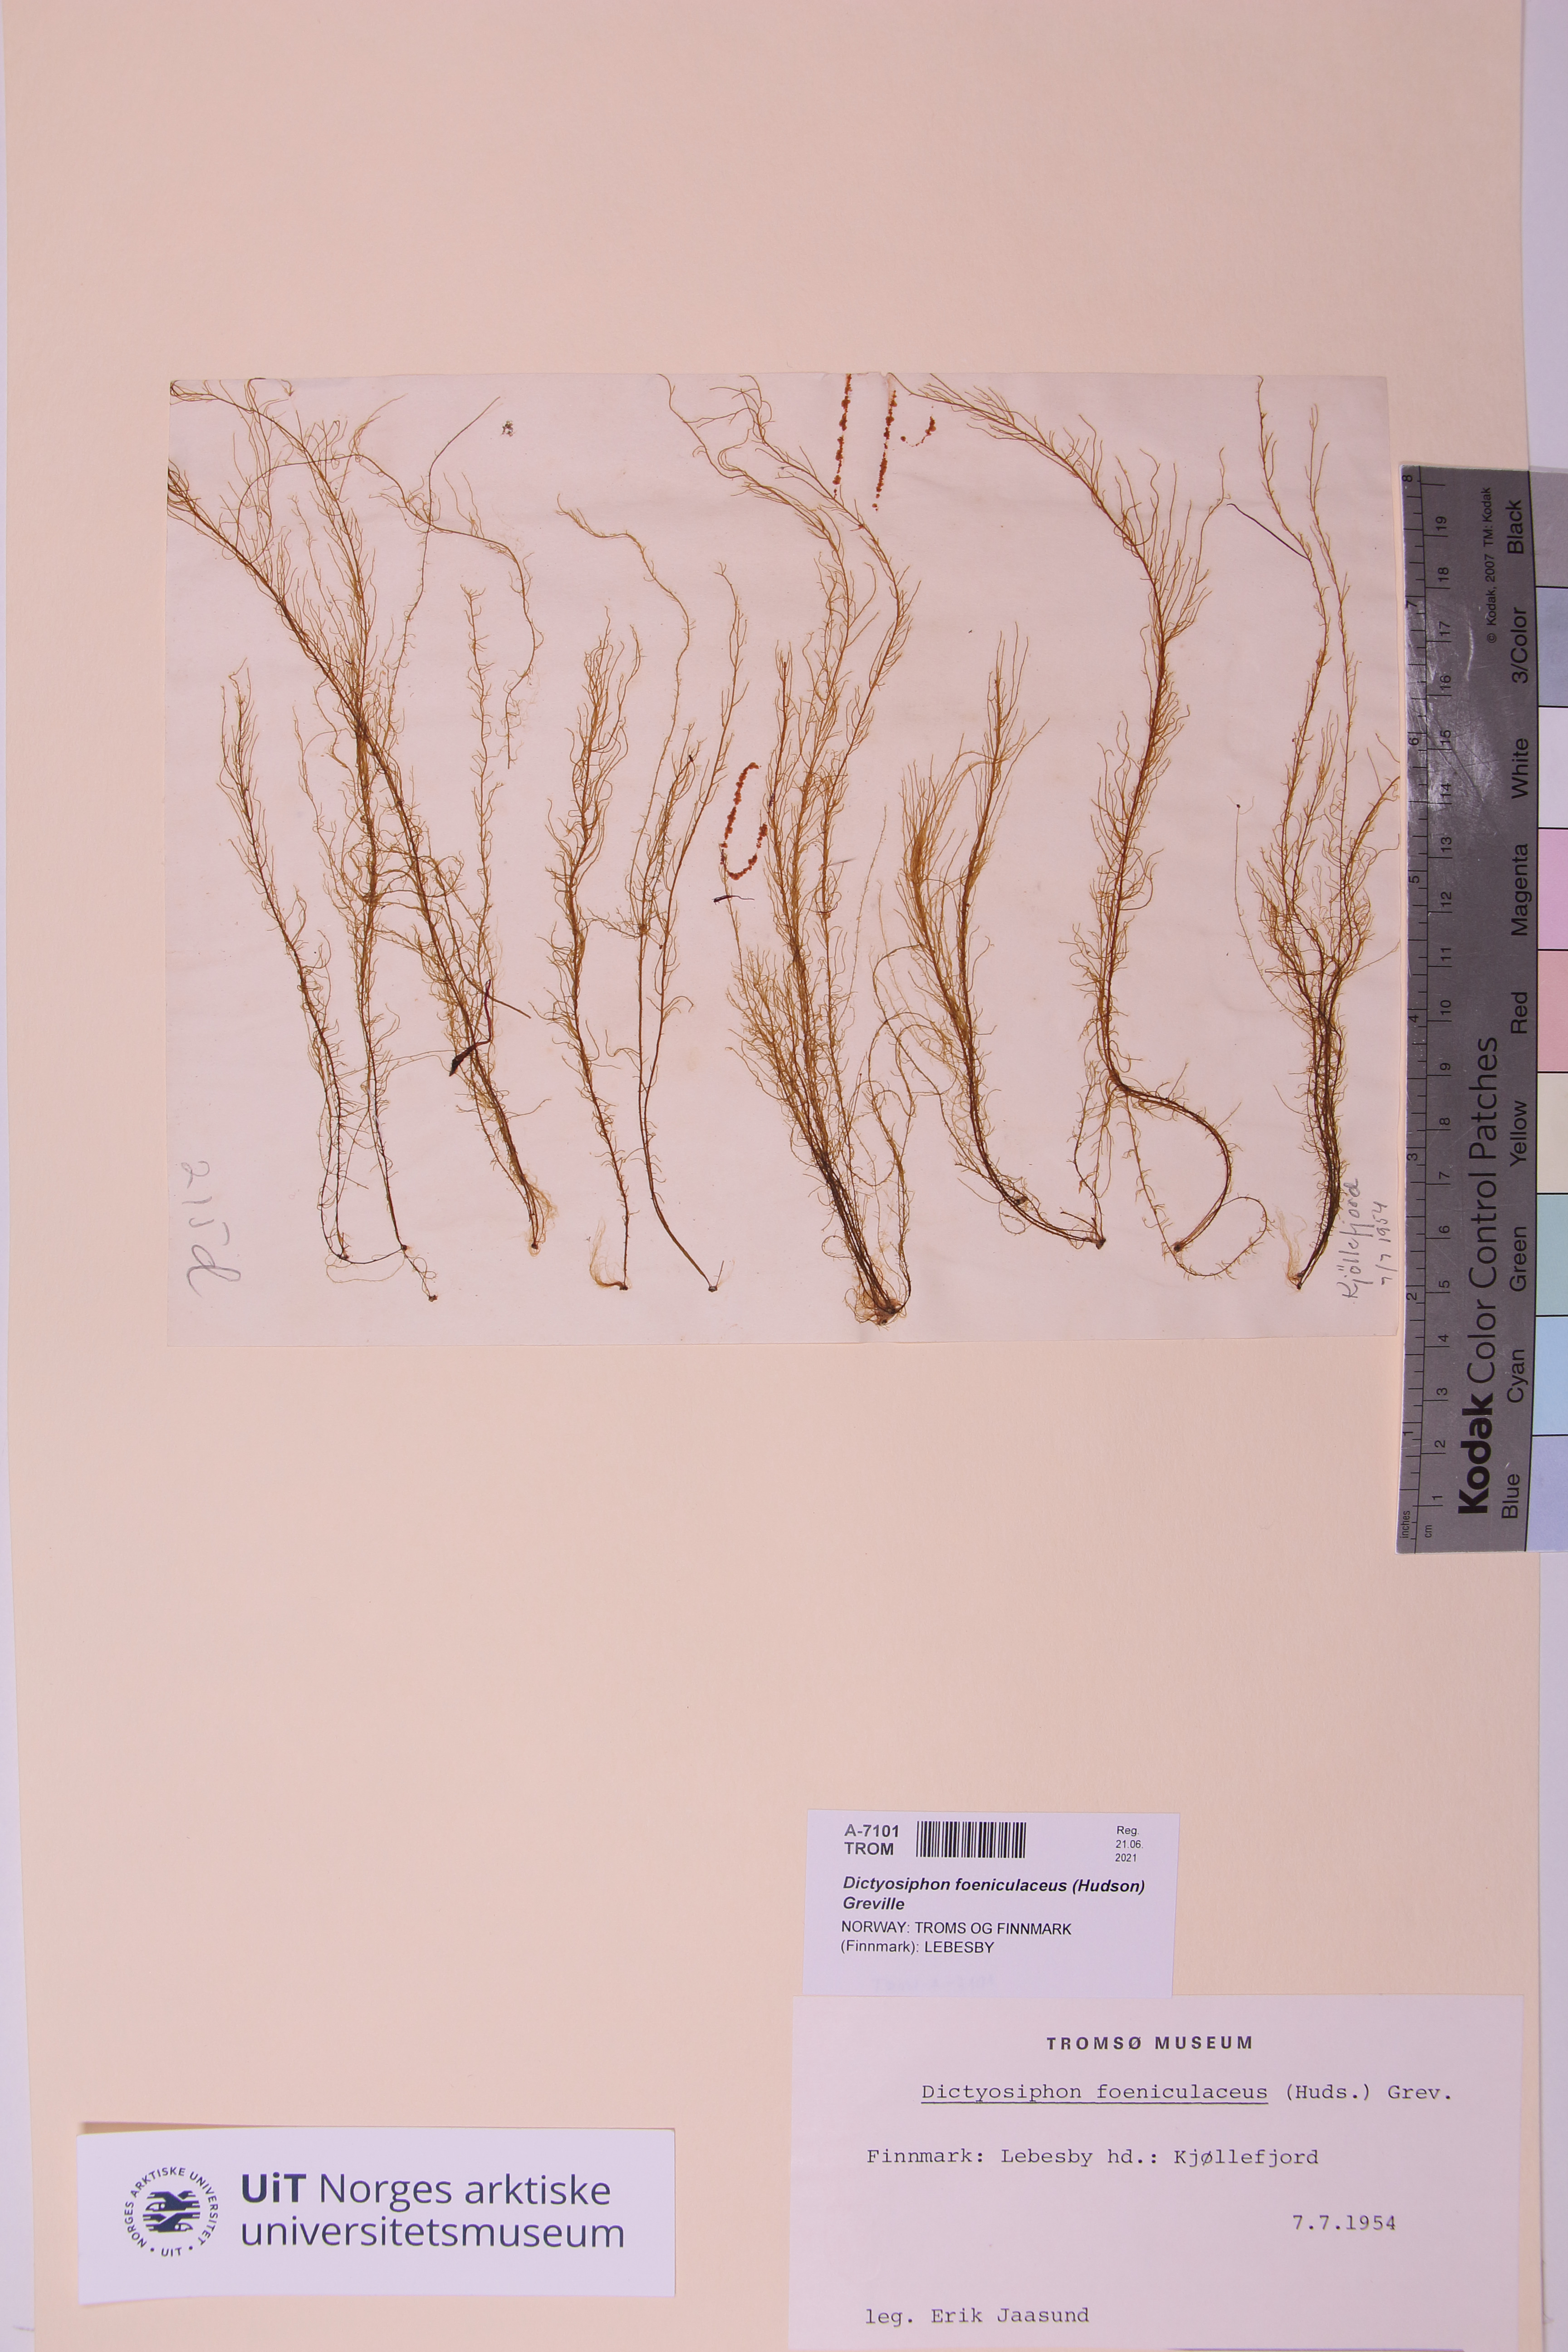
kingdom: Chromista
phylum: Ochrophyta
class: Phaeophyceae
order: Ectocarpales
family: Chordariaceae
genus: Dictyosiphon
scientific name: Dictyosiphon foeniculaceus
